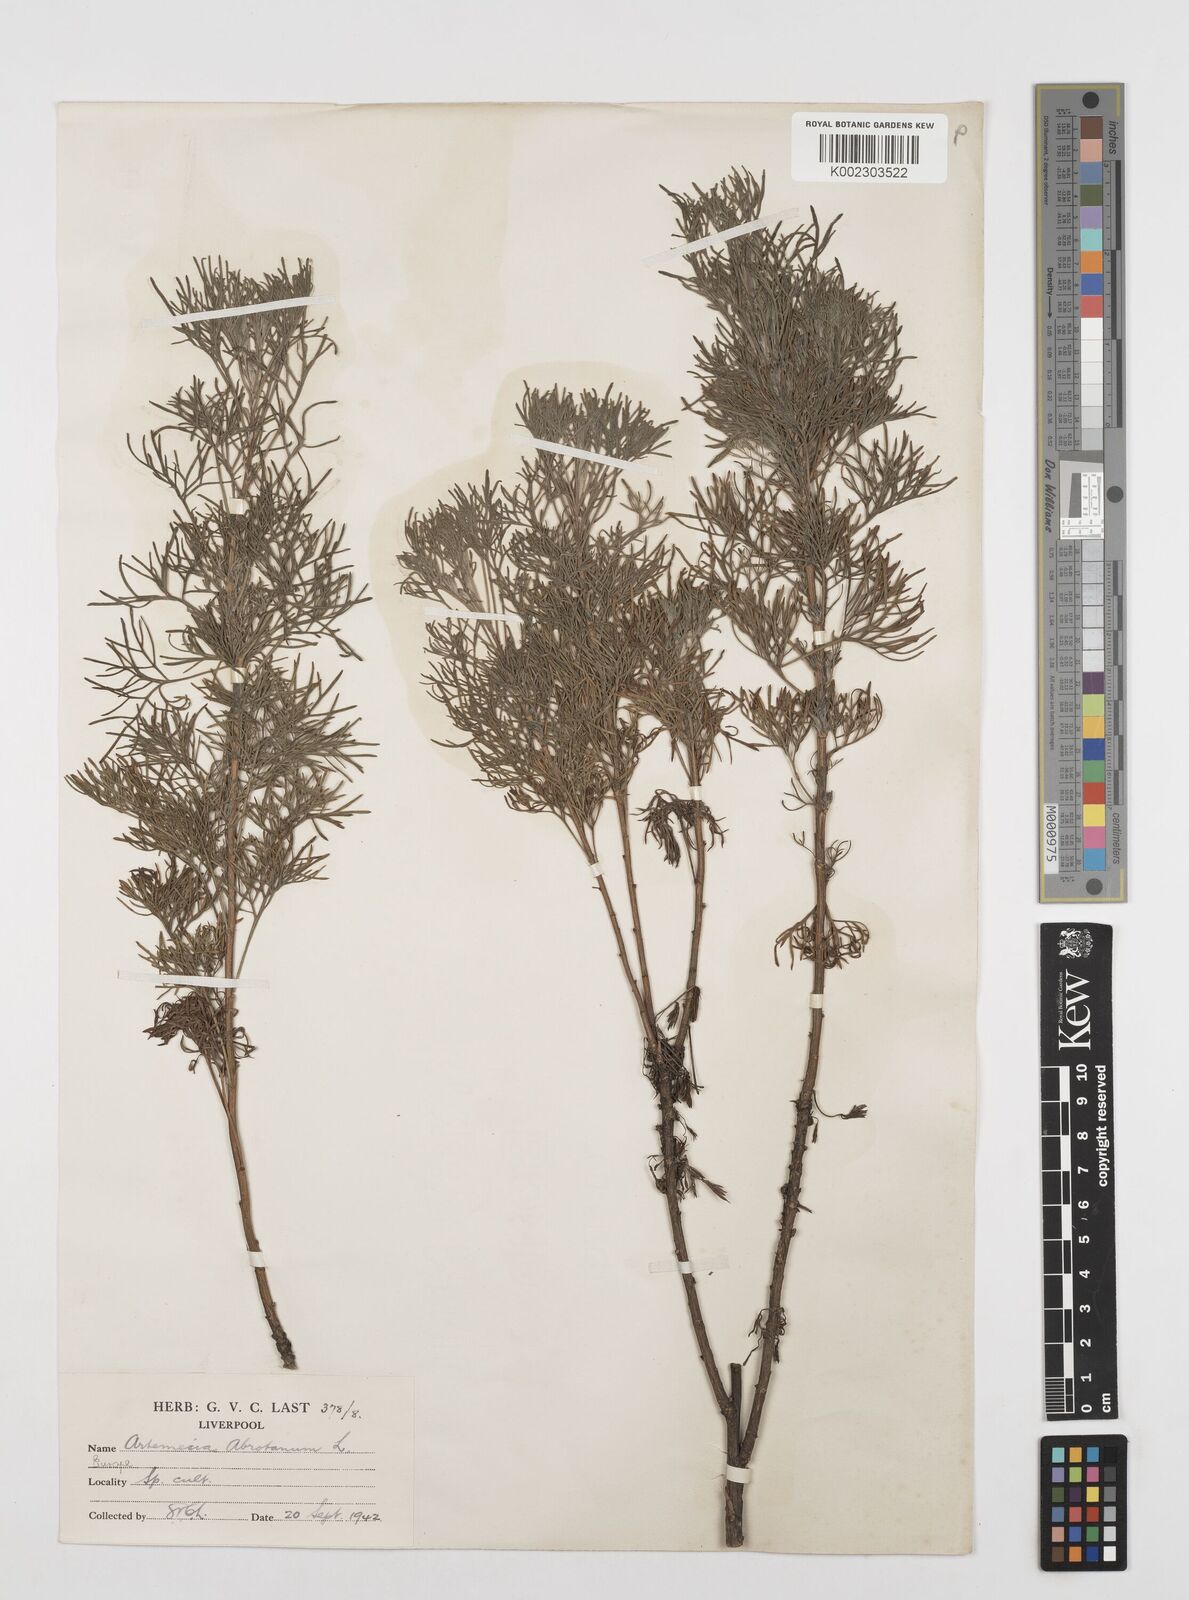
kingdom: Plantae
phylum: Tracheophyta
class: Magnoliopsida
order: Asterales
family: Asteraceae
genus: Artemisia
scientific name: Artemisia abrotanum
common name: Southernwood
